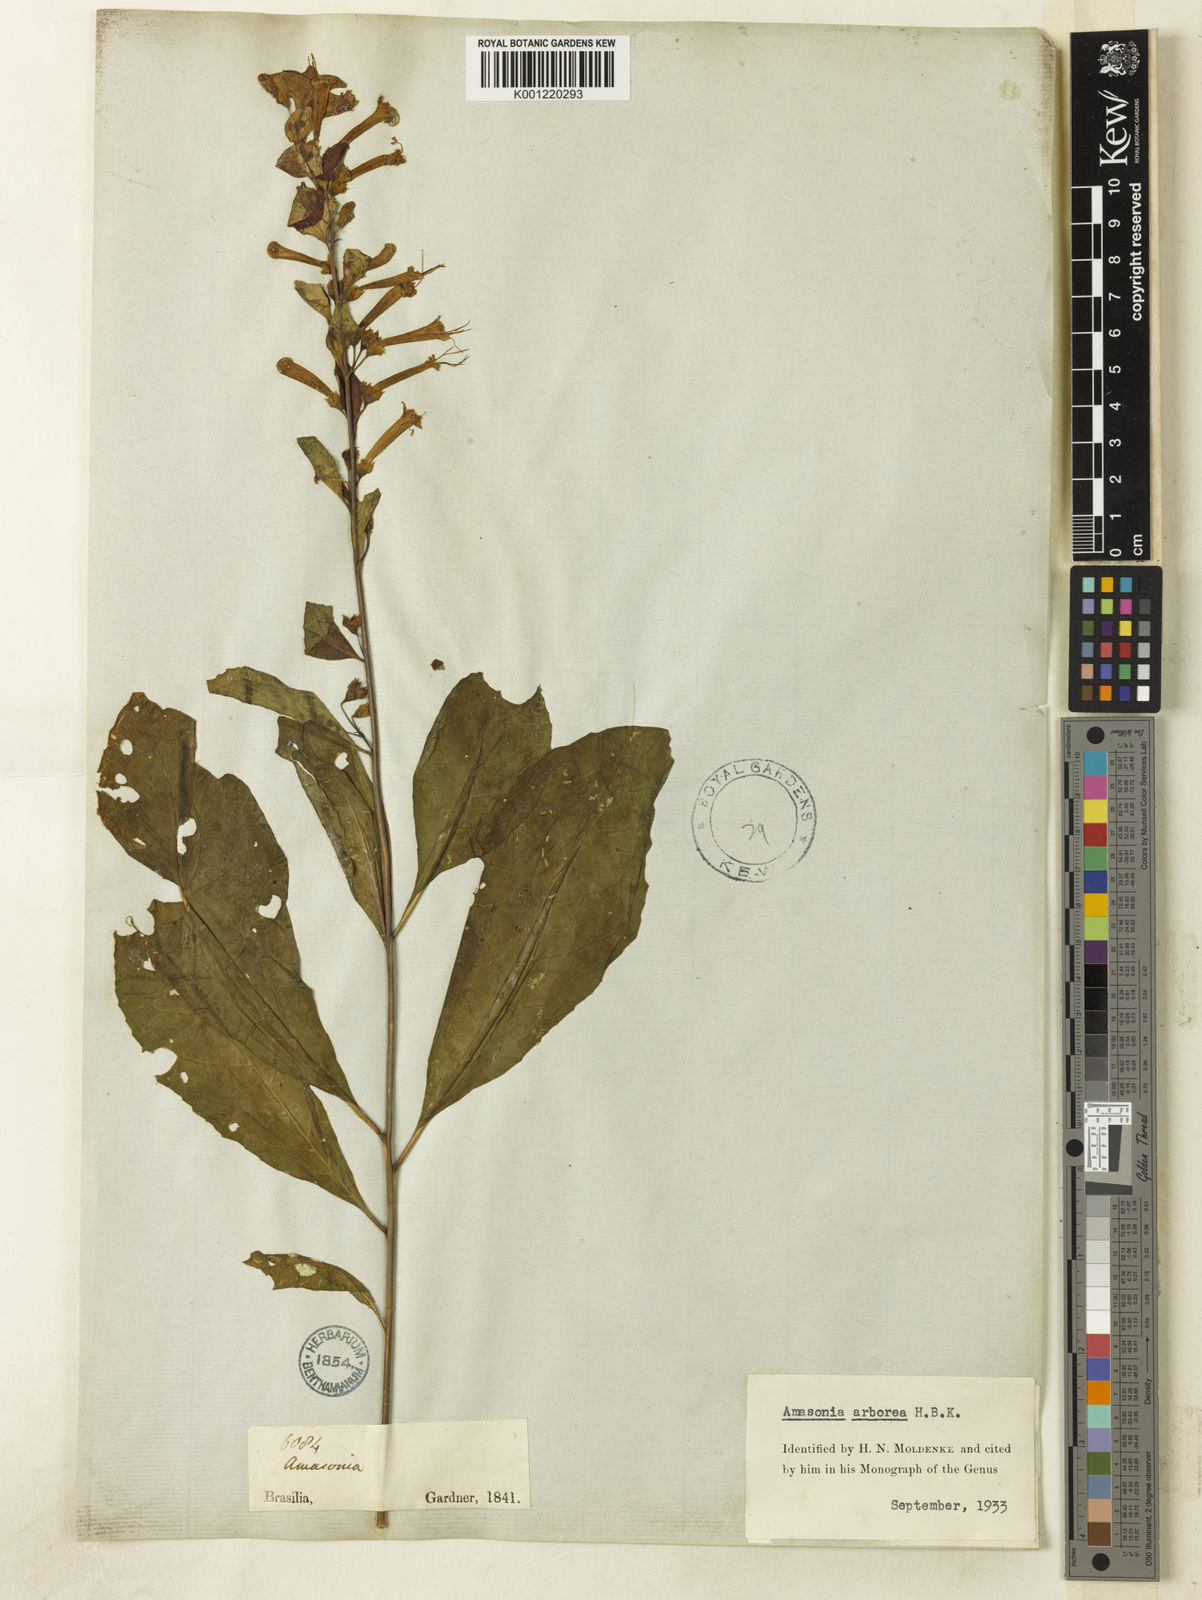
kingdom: Plantae
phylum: Tracheophyta
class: Magnoliopsida
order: Lamiales
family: Lamiaceae
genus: Amasonia
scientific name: Amasonia arborea
